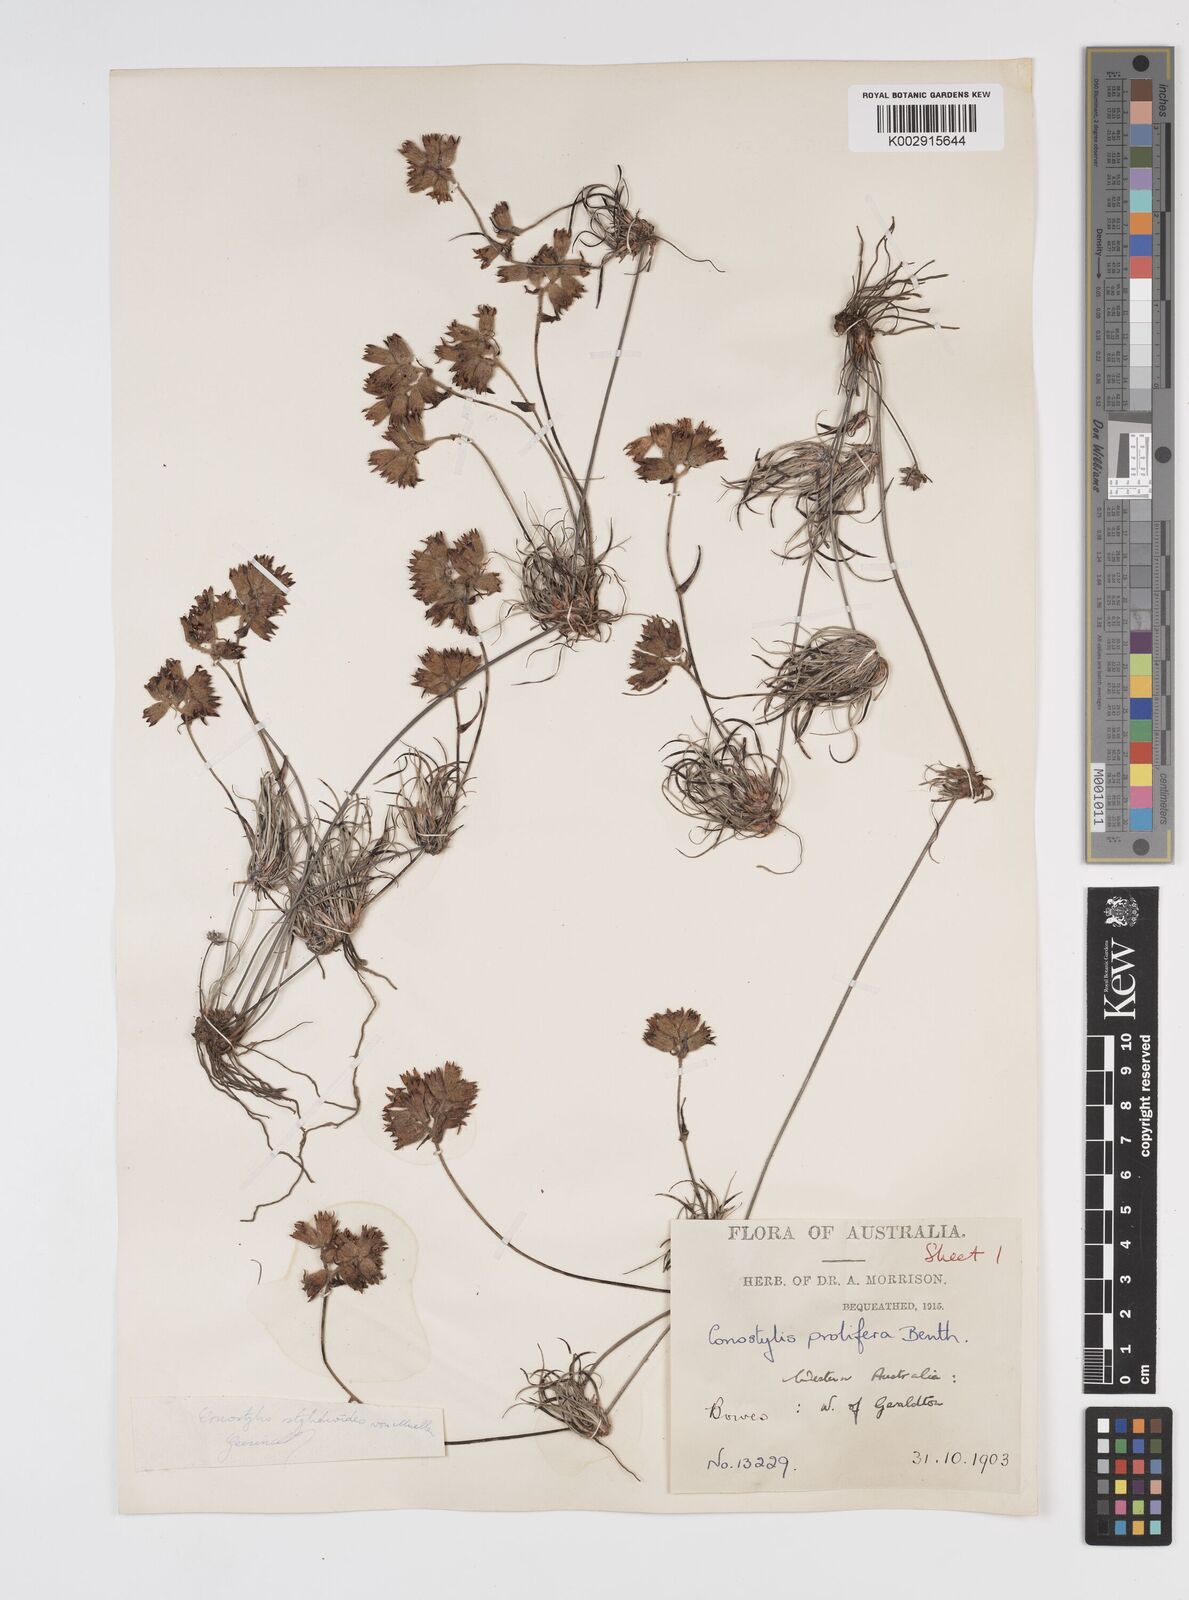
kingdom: Plantae
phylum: Tracheophyta
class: Liliopsida
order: Commelinales
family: Haemodoraceae
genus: Conostylis
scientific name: Conostylis stylidioides
